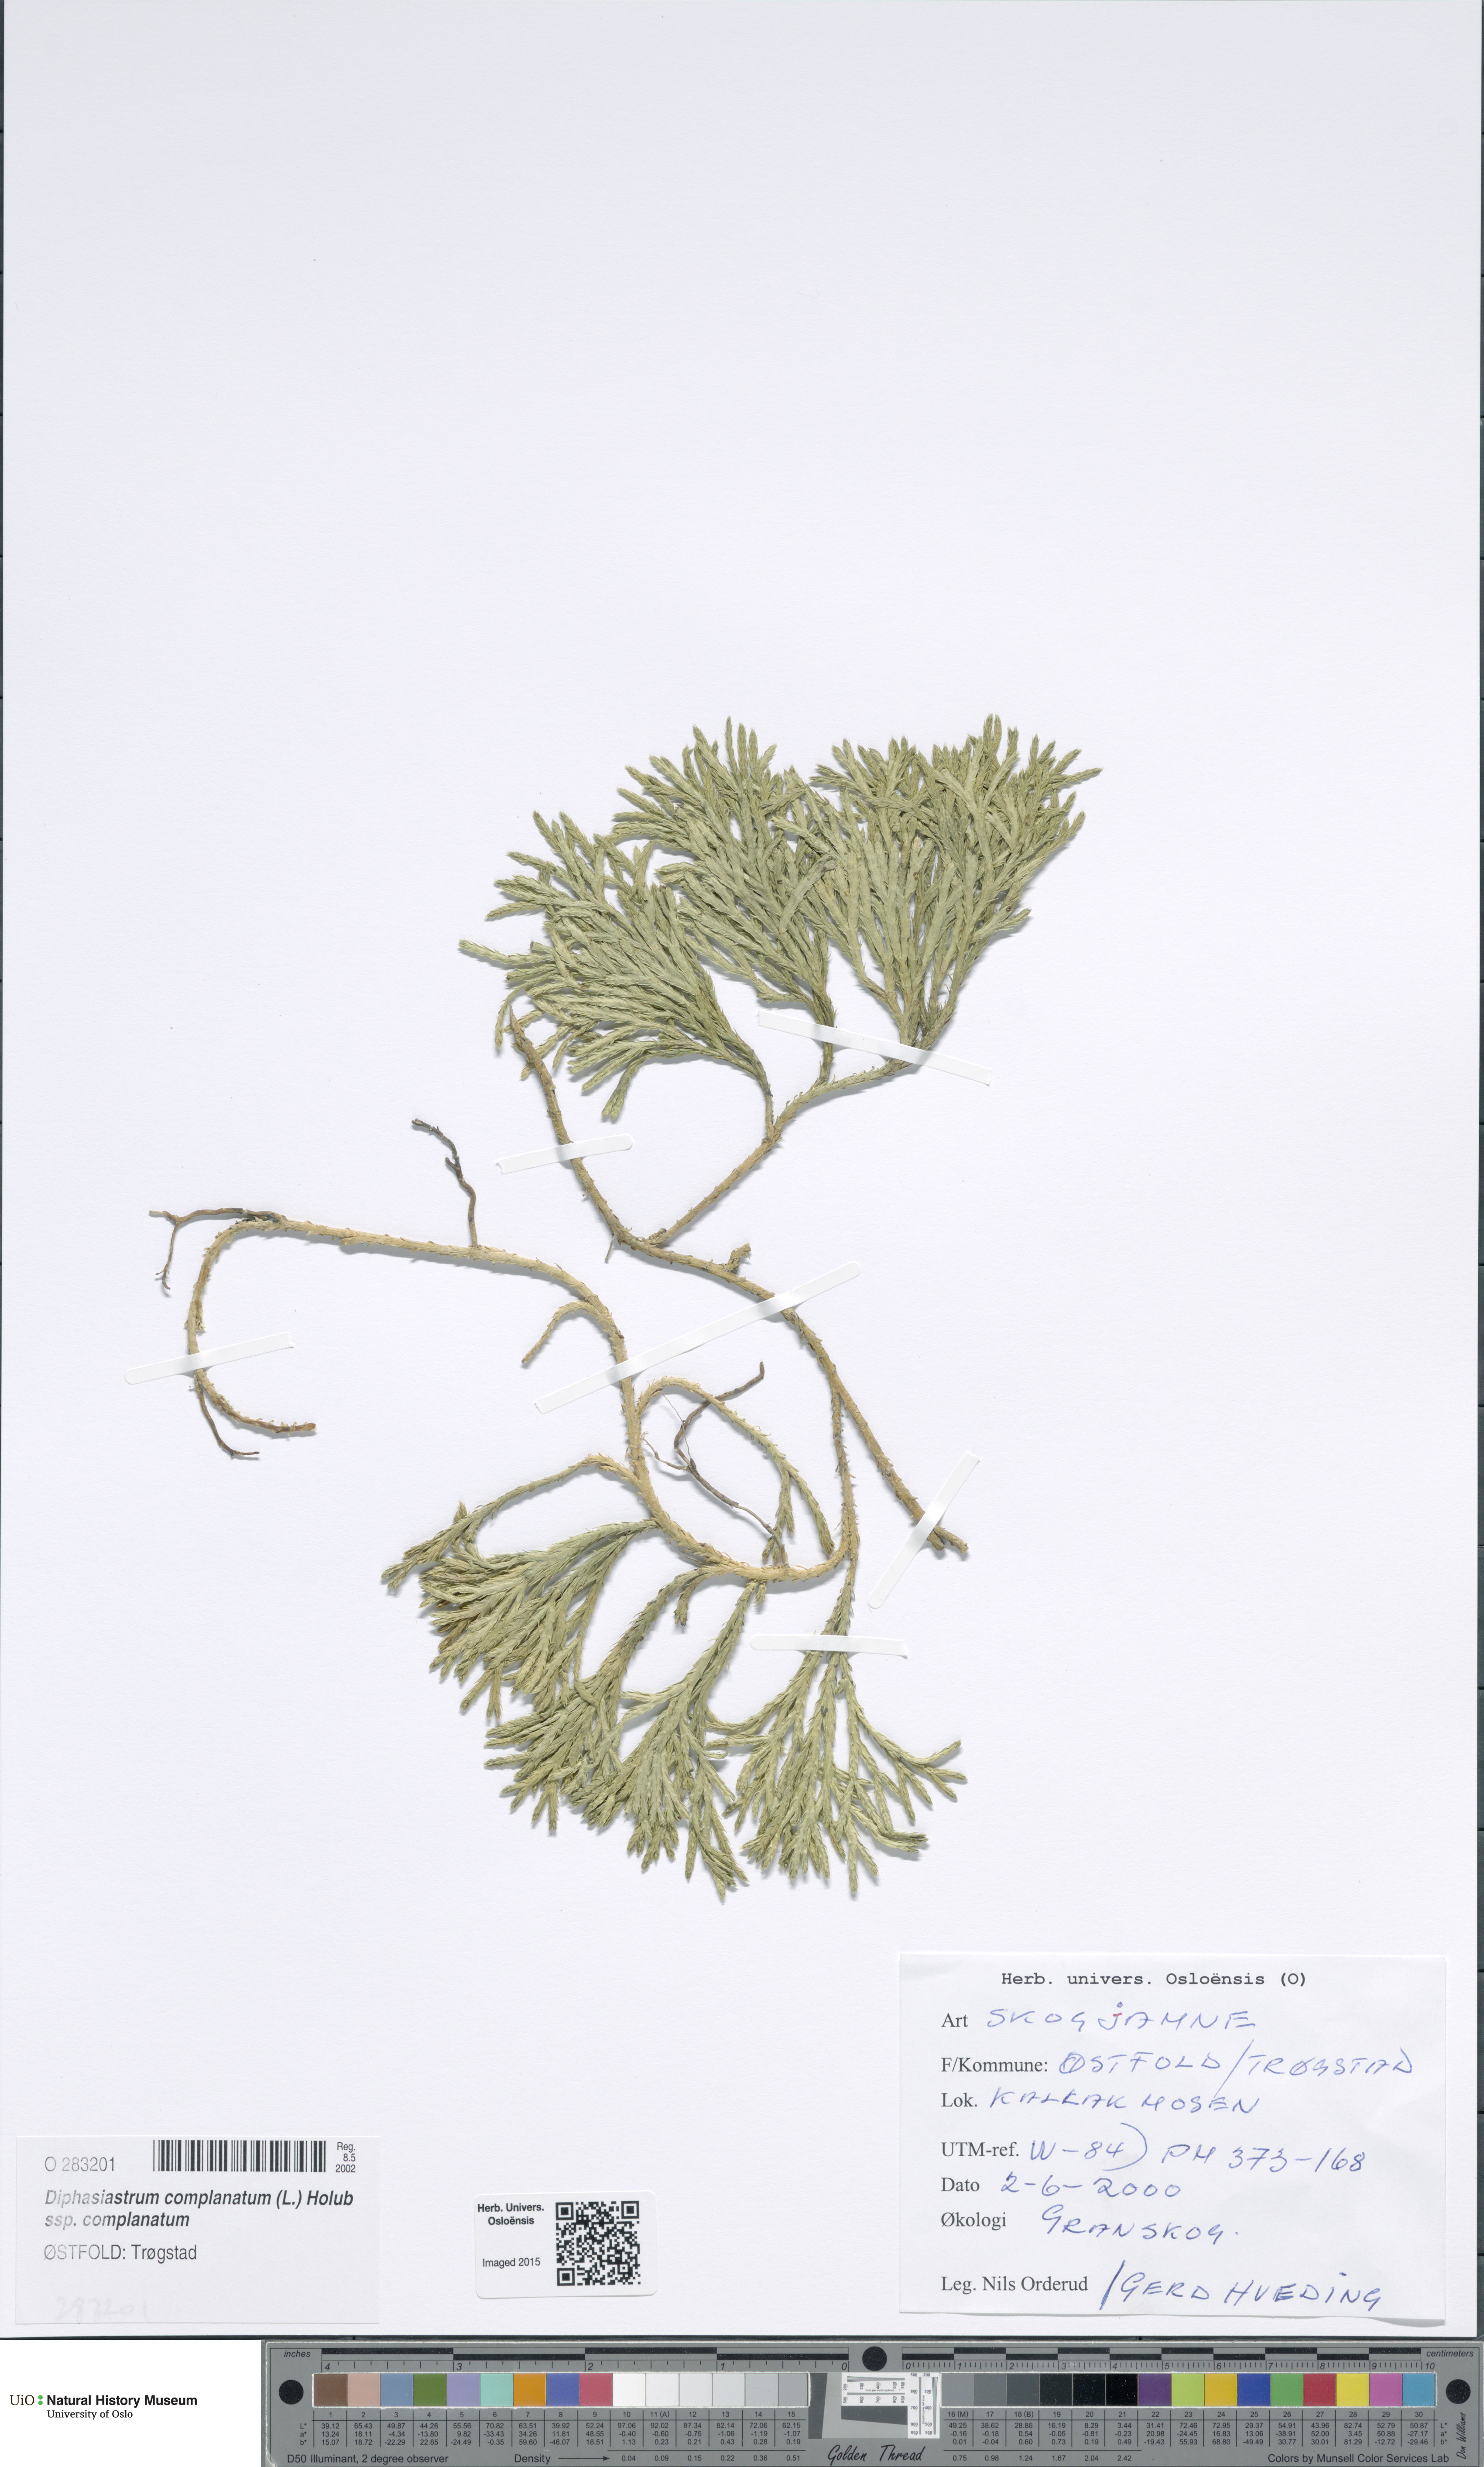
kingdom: Plantae
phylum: Tracheophyta
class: Lycopodiopsida
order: Lycopodiales
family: Lycopodiaceae
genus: Diphasiastrum
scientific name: Diphasiastrum complanatum
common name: Northern running-pine
